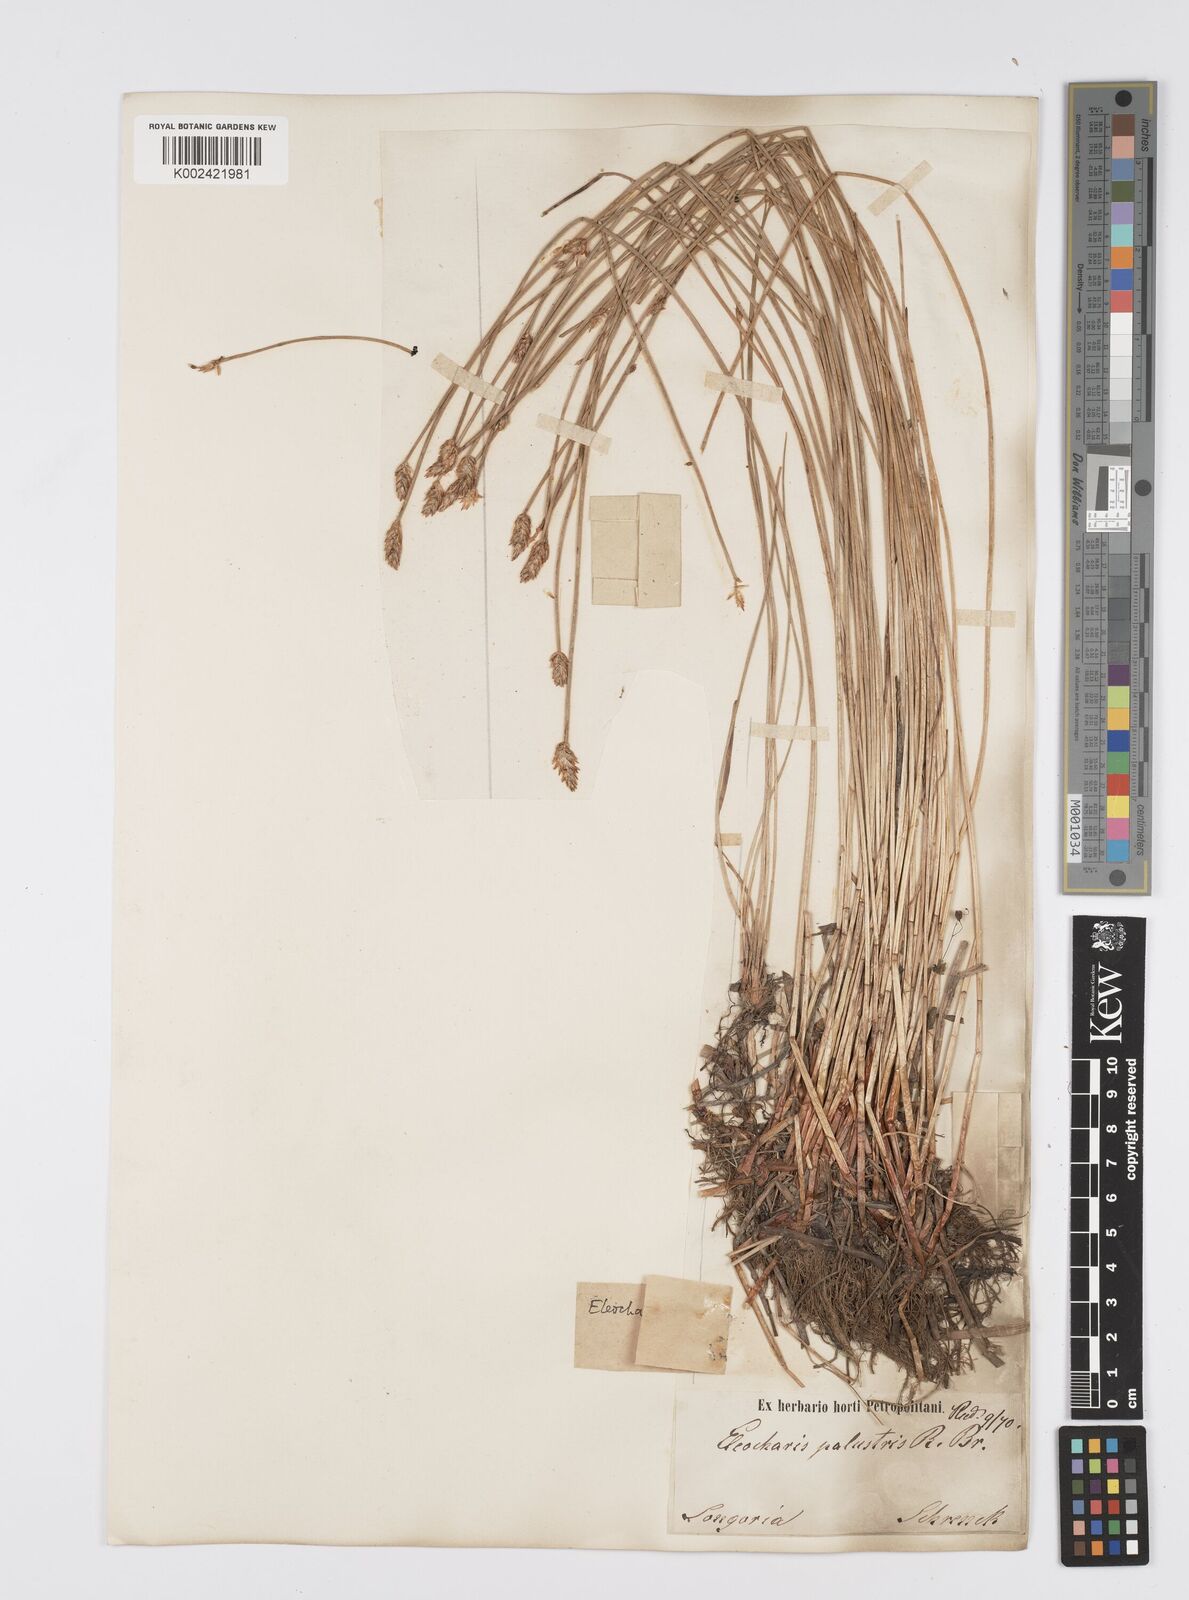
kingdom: Plantae
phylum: Tracheophyta
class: Liliopsida
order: Poales
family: Cyperaceae
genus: Eleocharis
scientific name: Eleocharis palustris
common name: Common spike-rush
